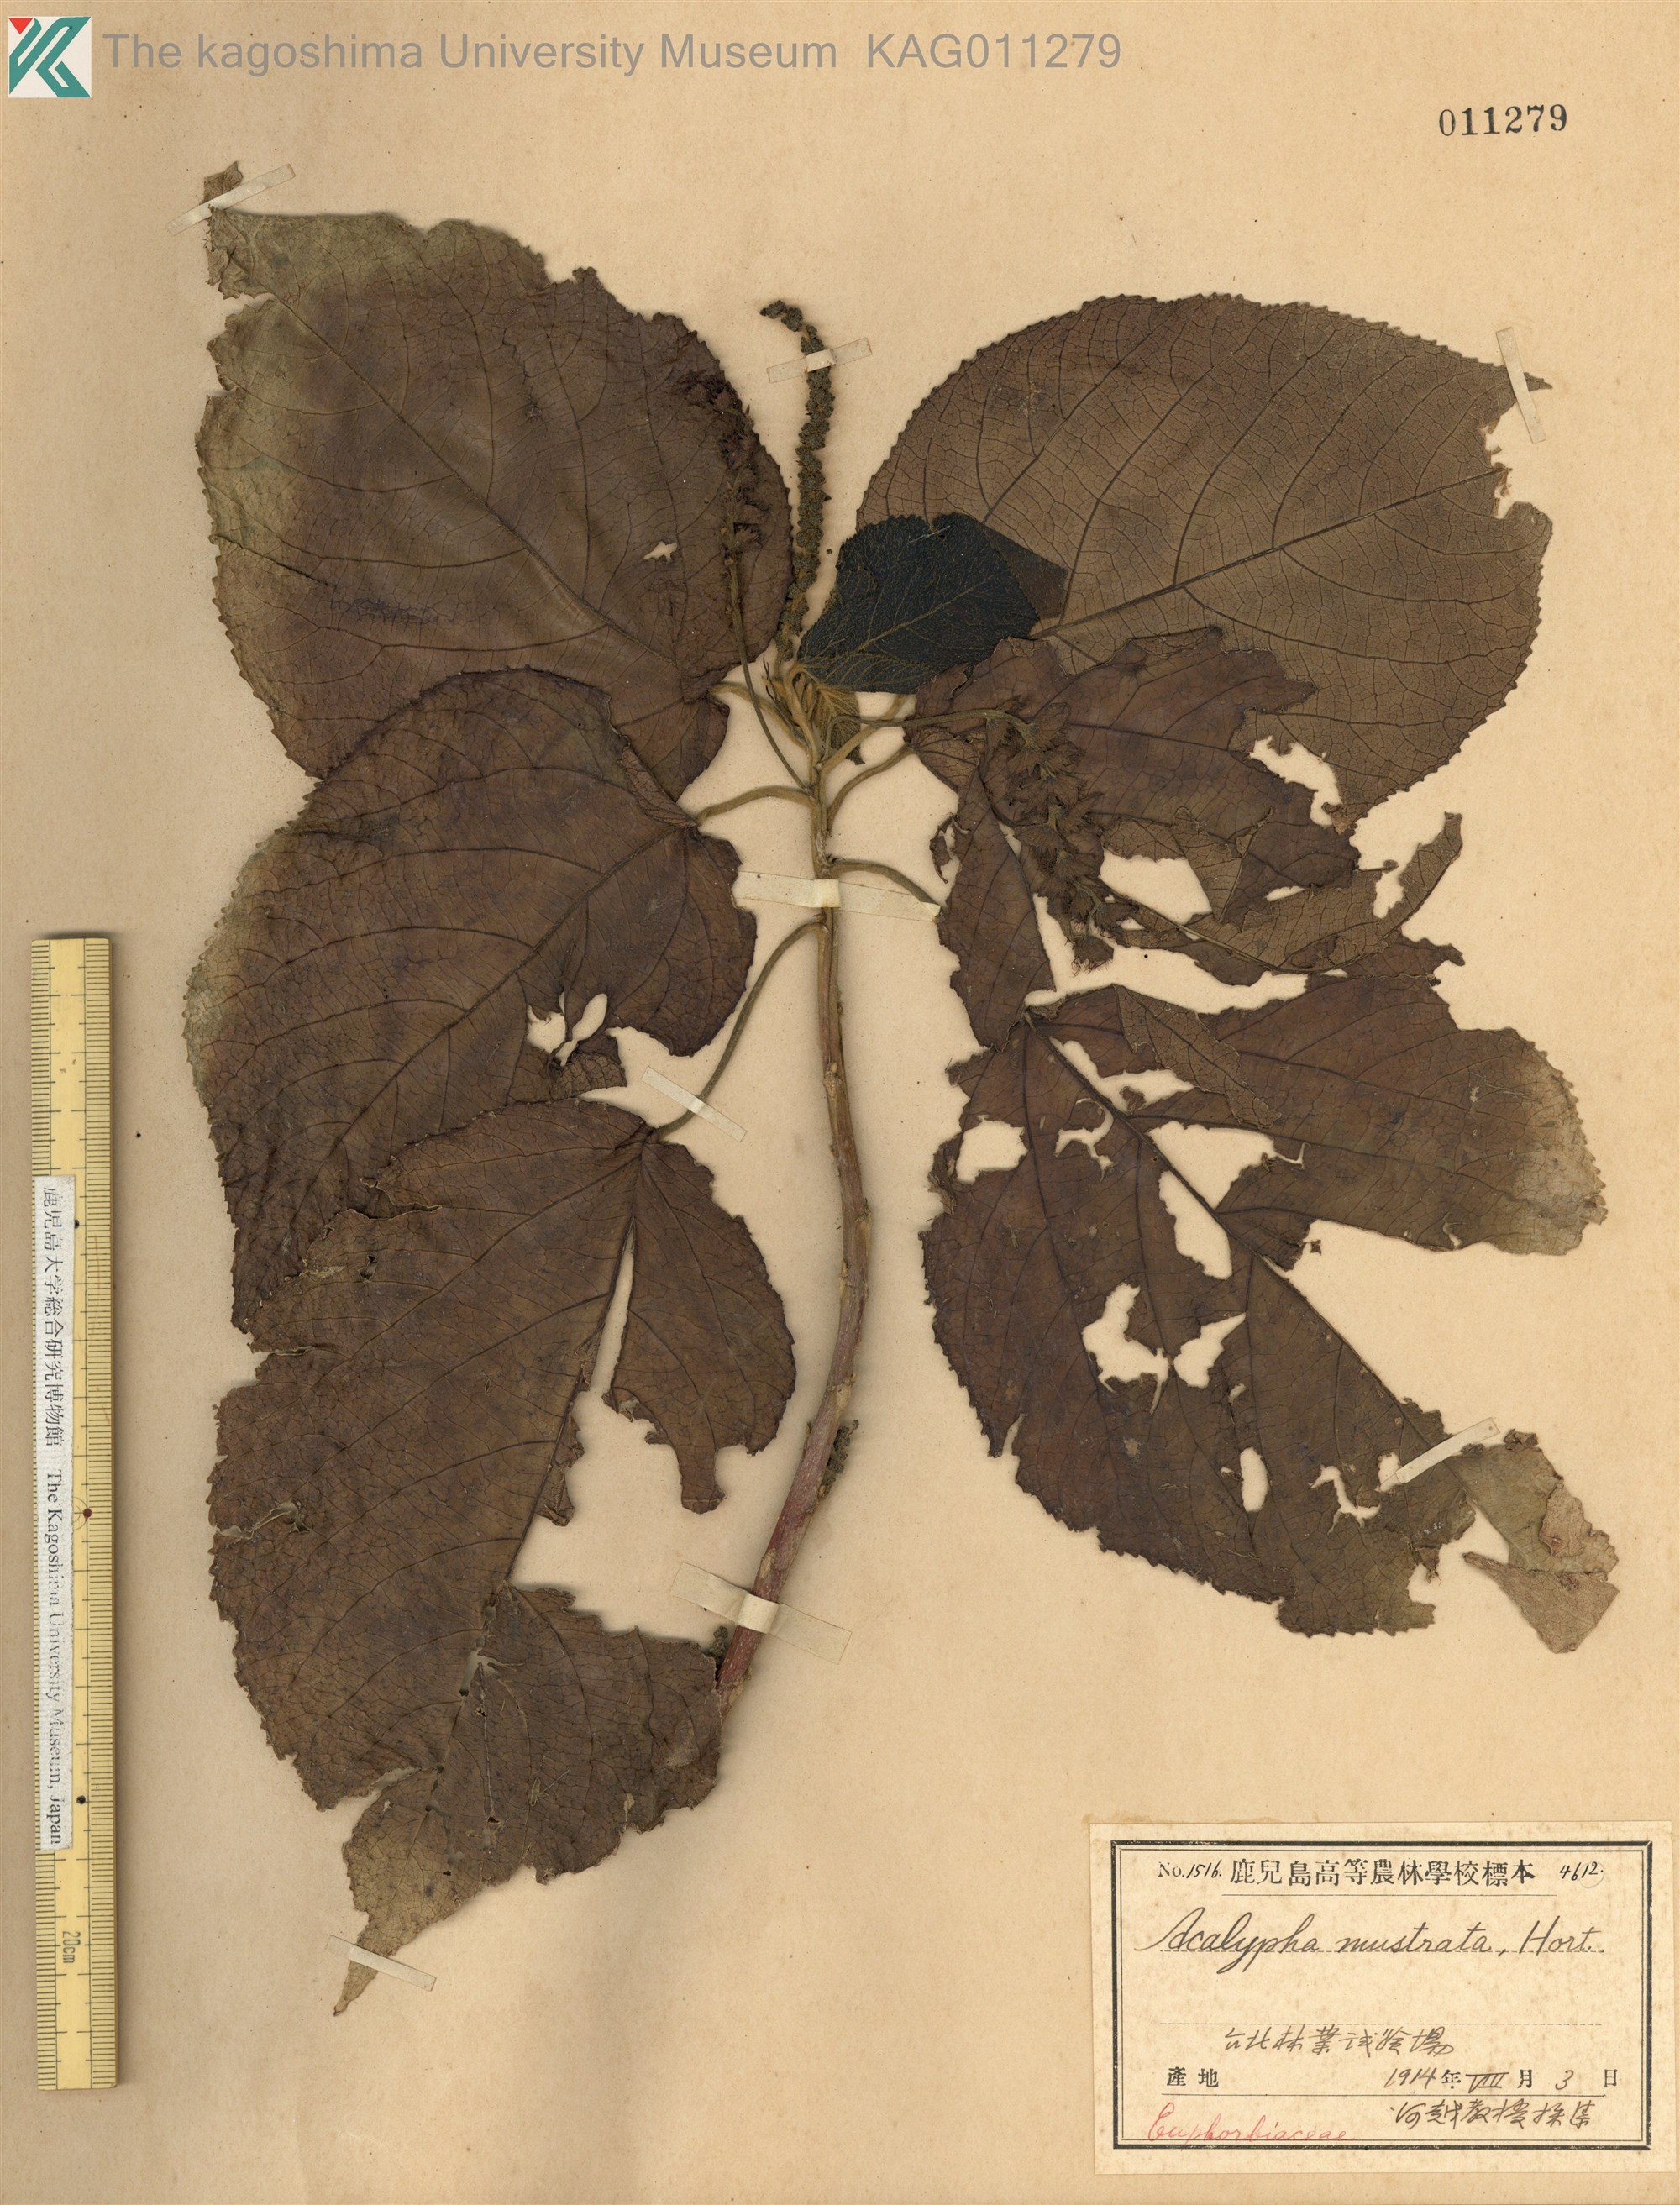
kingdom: Plantae
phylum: Tracheophyta
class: Magnoliopsida
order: Malpighiales
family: Euphorbiaceae
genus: Acalypha
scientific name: Acalypha
